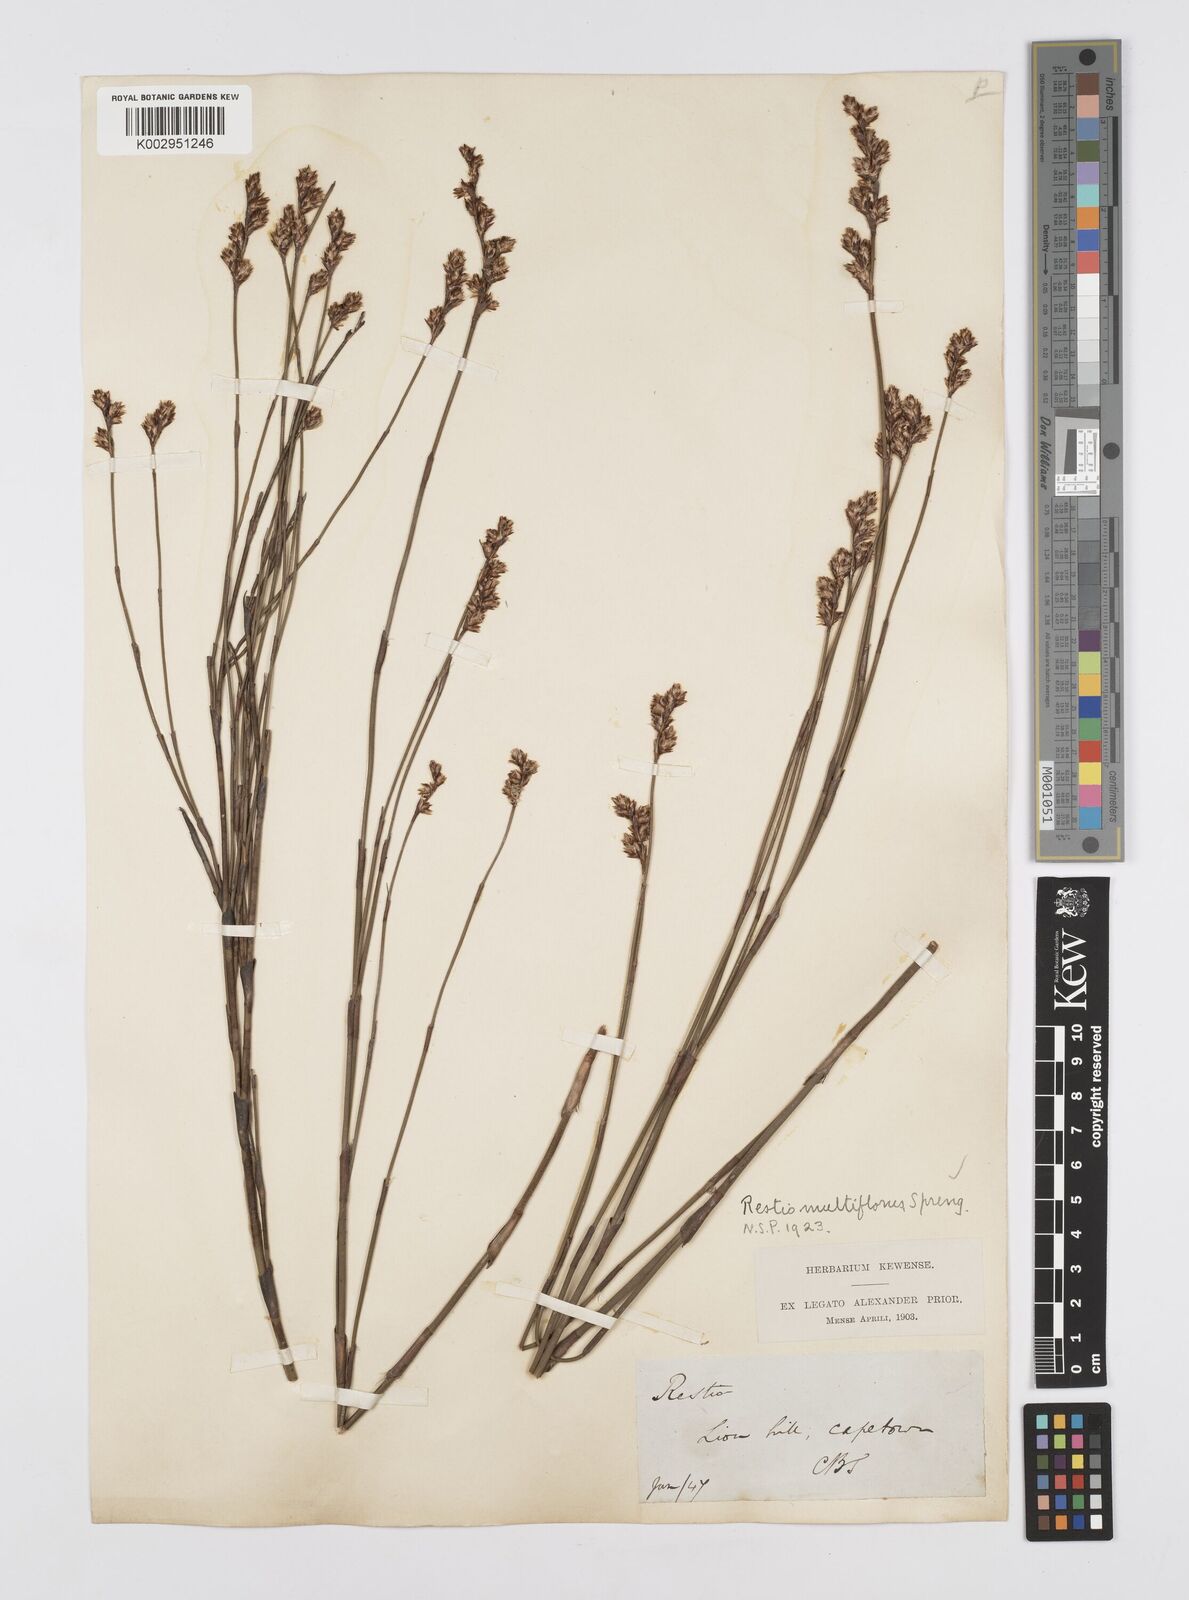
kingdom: Plantae
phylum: Tracheophyta
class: Liliopsida
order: Poales
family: Restionaceae
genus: Restio
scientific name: Restio multiflorus
